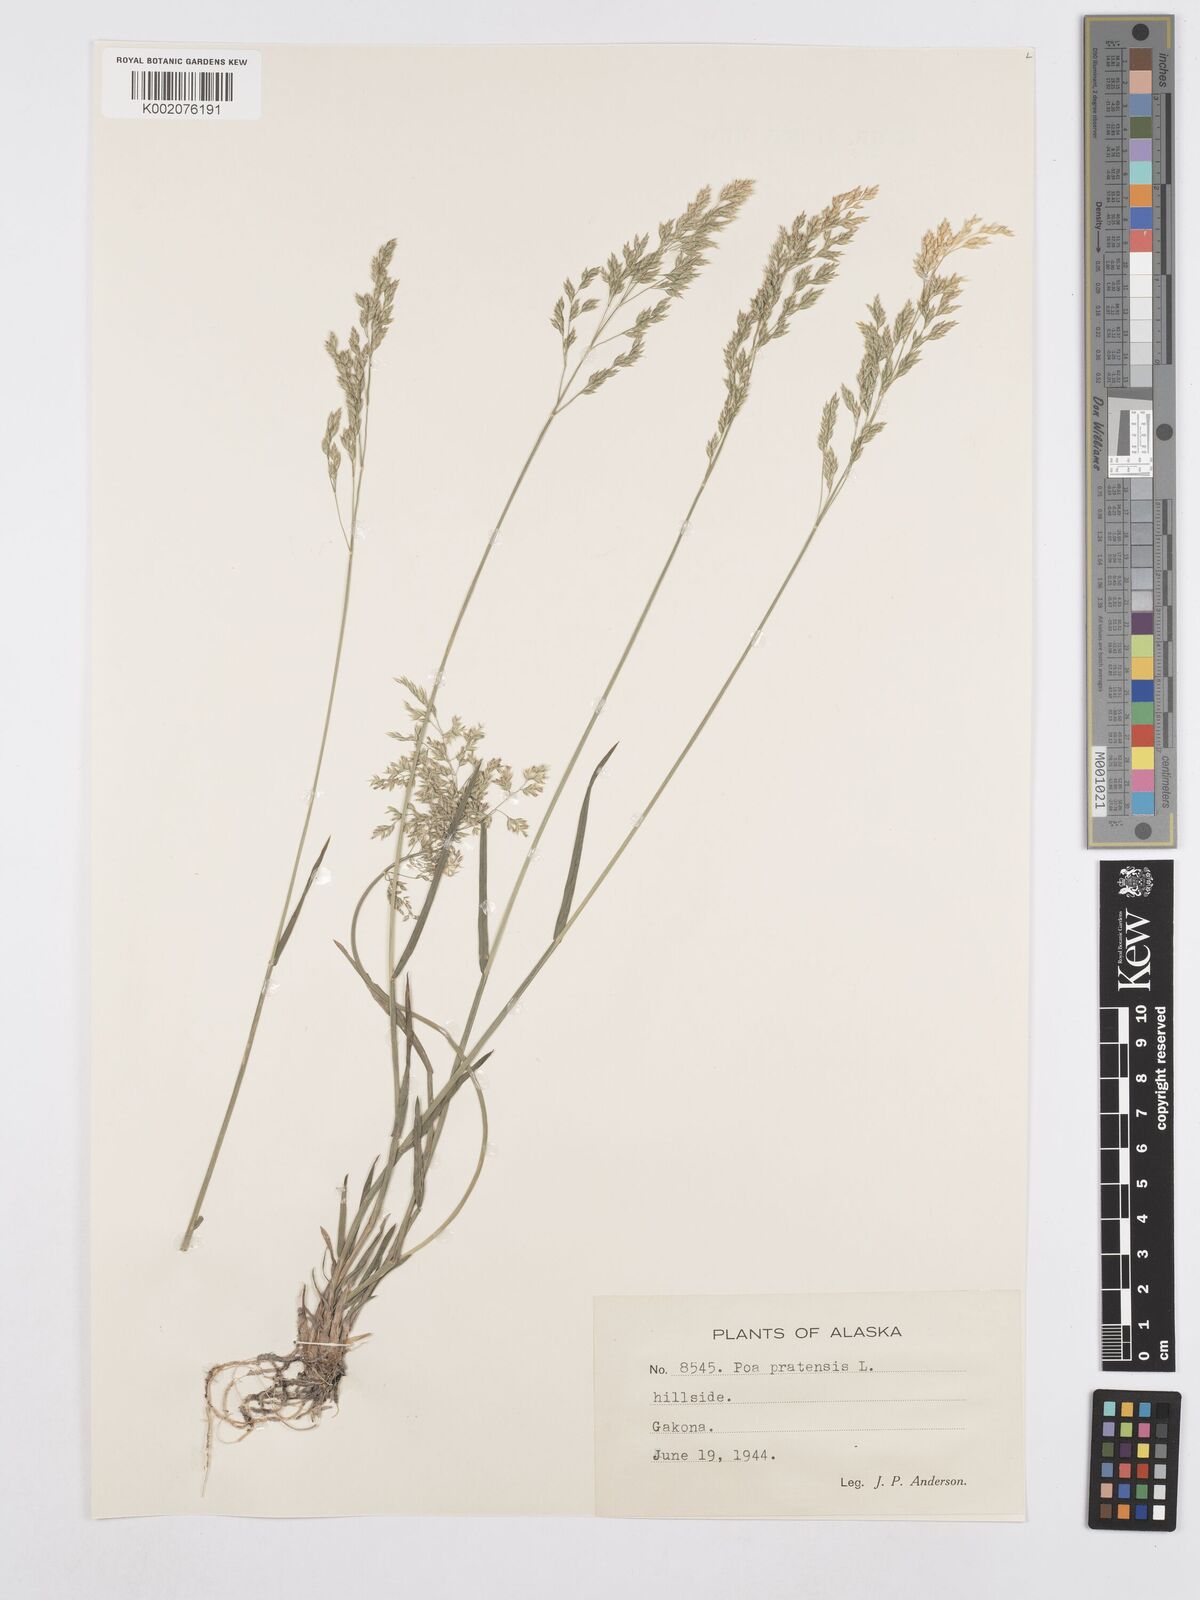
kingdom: Plantae
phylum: Tracheophyta
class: Liliopsida
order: Poales
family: Poaceae
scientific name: Poaceae
